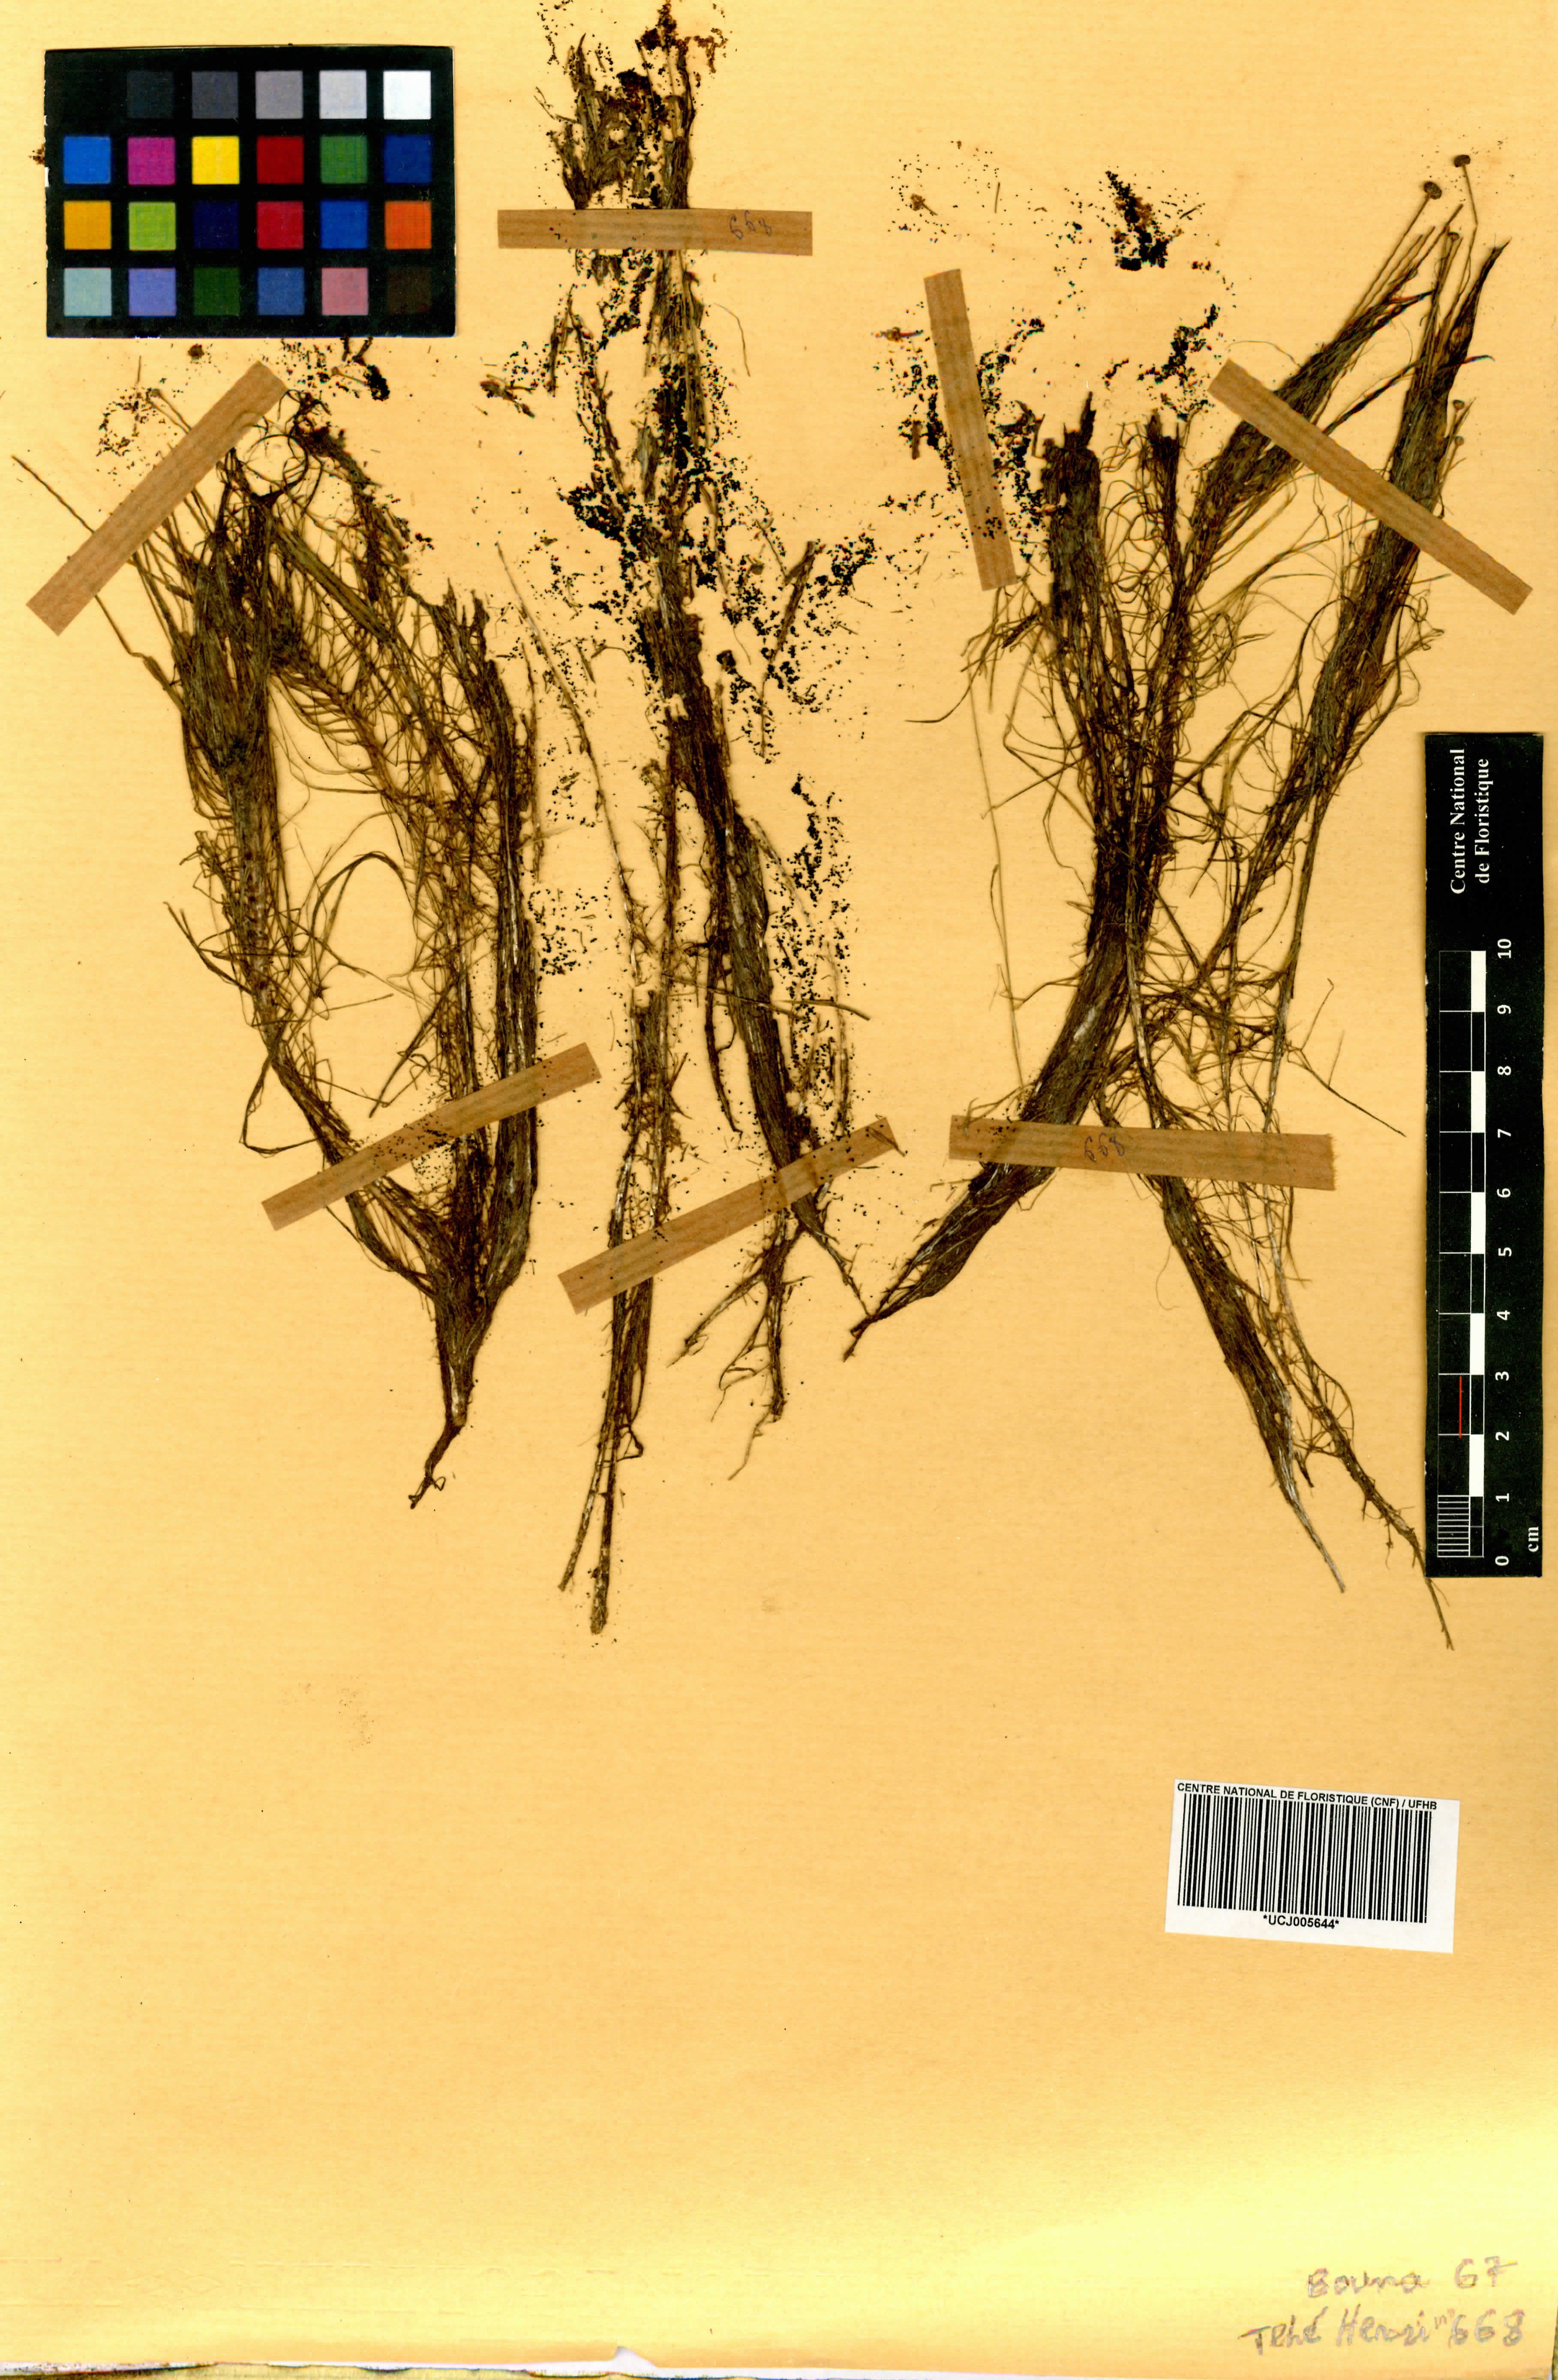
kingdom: Plantae
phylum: Tracheophyta
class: Liliopsida
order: Poales
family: Eriocaulaceae
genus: Eriocaulon
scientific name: Eriocaulon
